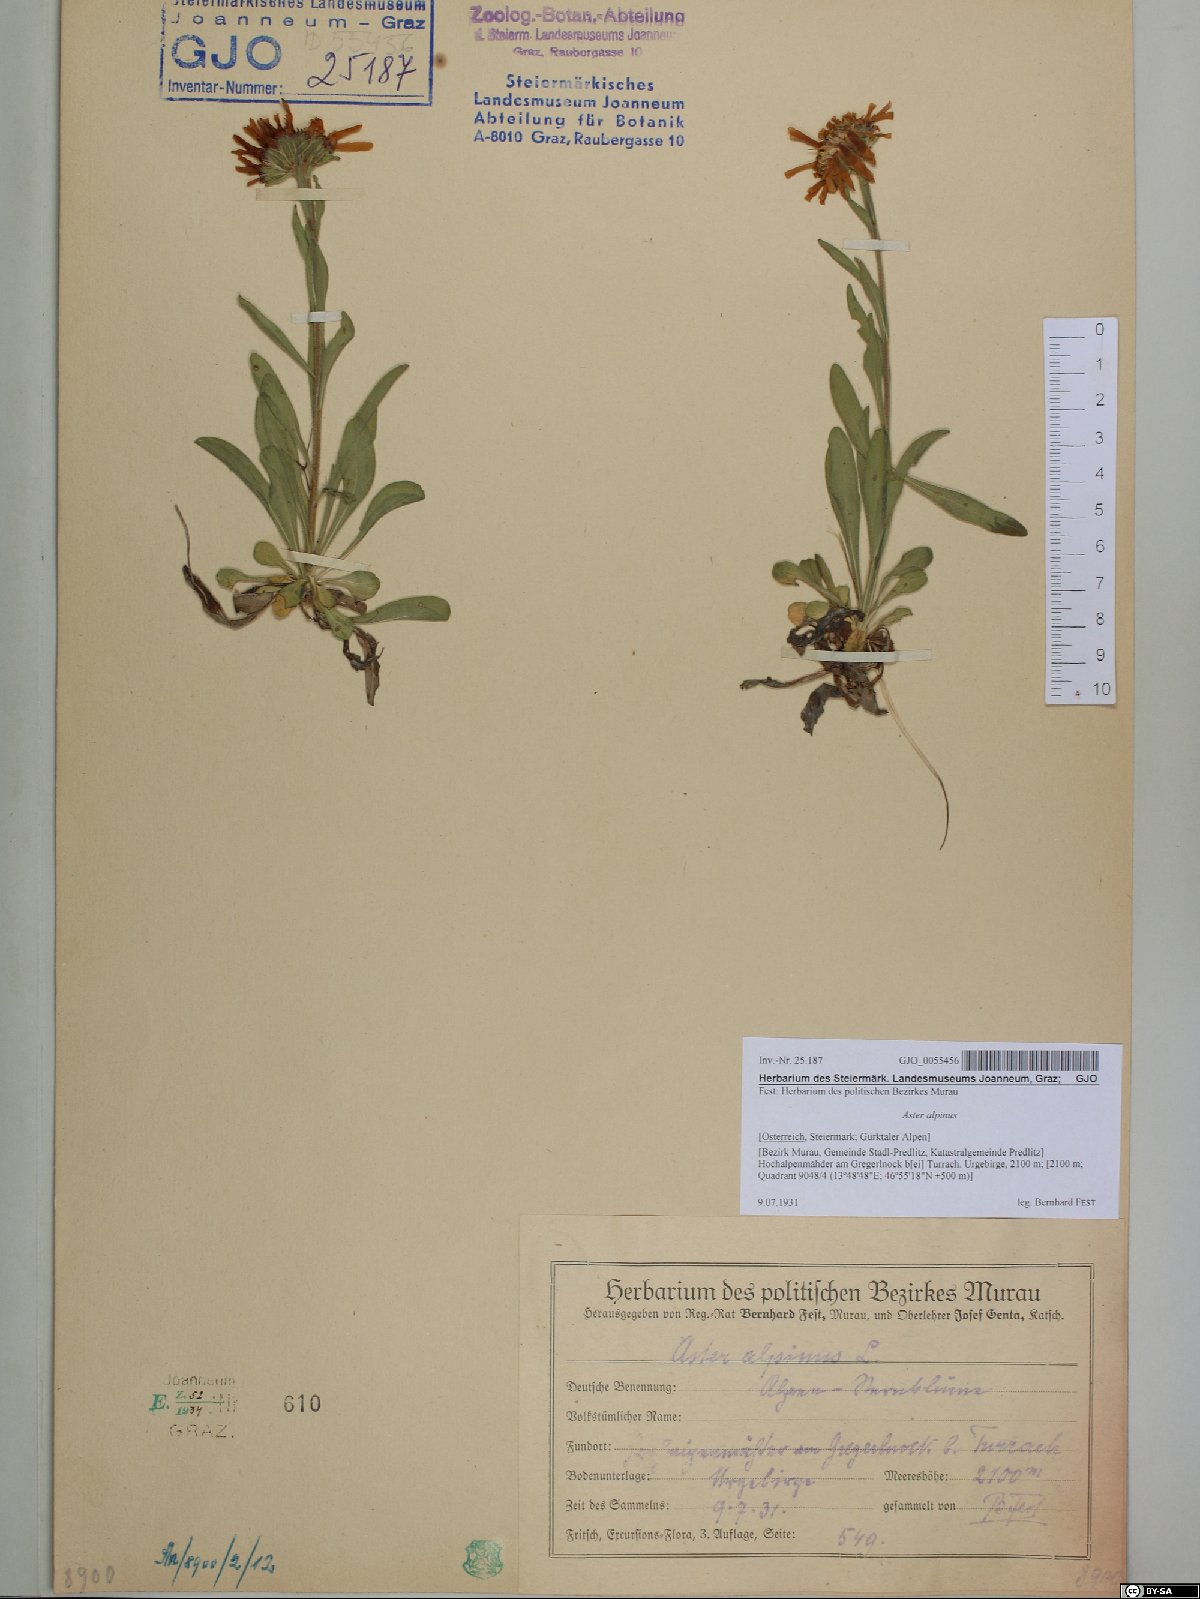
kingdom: Plantae
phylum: Tracheophyta
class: Magnoliopsida
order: Asterales
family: Asteraceae
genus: Aster
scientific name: Aster alpinus
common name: Alpine aster
